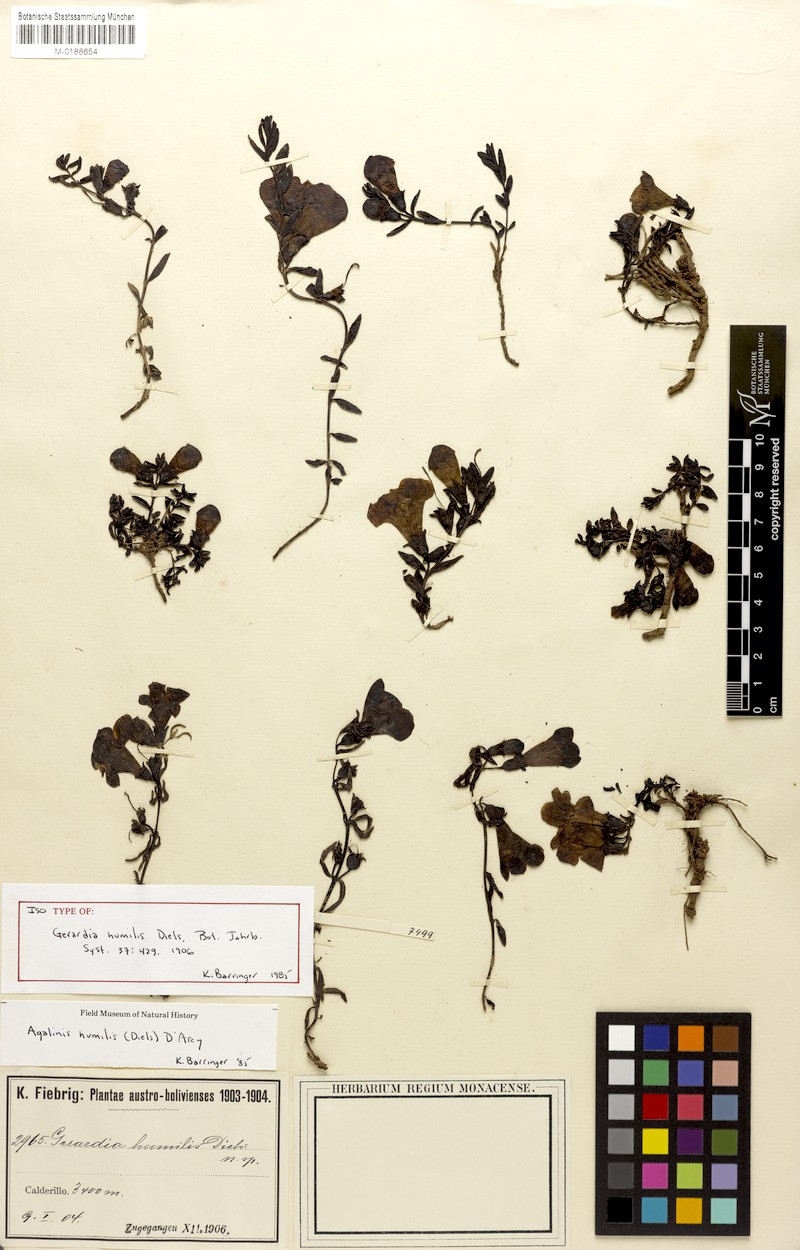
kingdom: Plantae
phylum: Tracheophyta
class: Magnoliopsida
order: Lamiales
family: Orobanchaceae
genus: Agalinis
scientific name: Agalinis humilis
